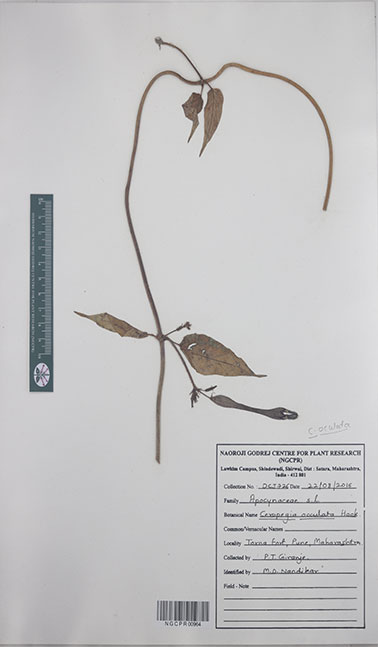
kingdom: Plantae
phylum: Tracheophyta
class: Magnoliopsida
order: Gentianales
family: Apocynaceae
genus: Ceropegia
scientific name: Ceropegia oculata
